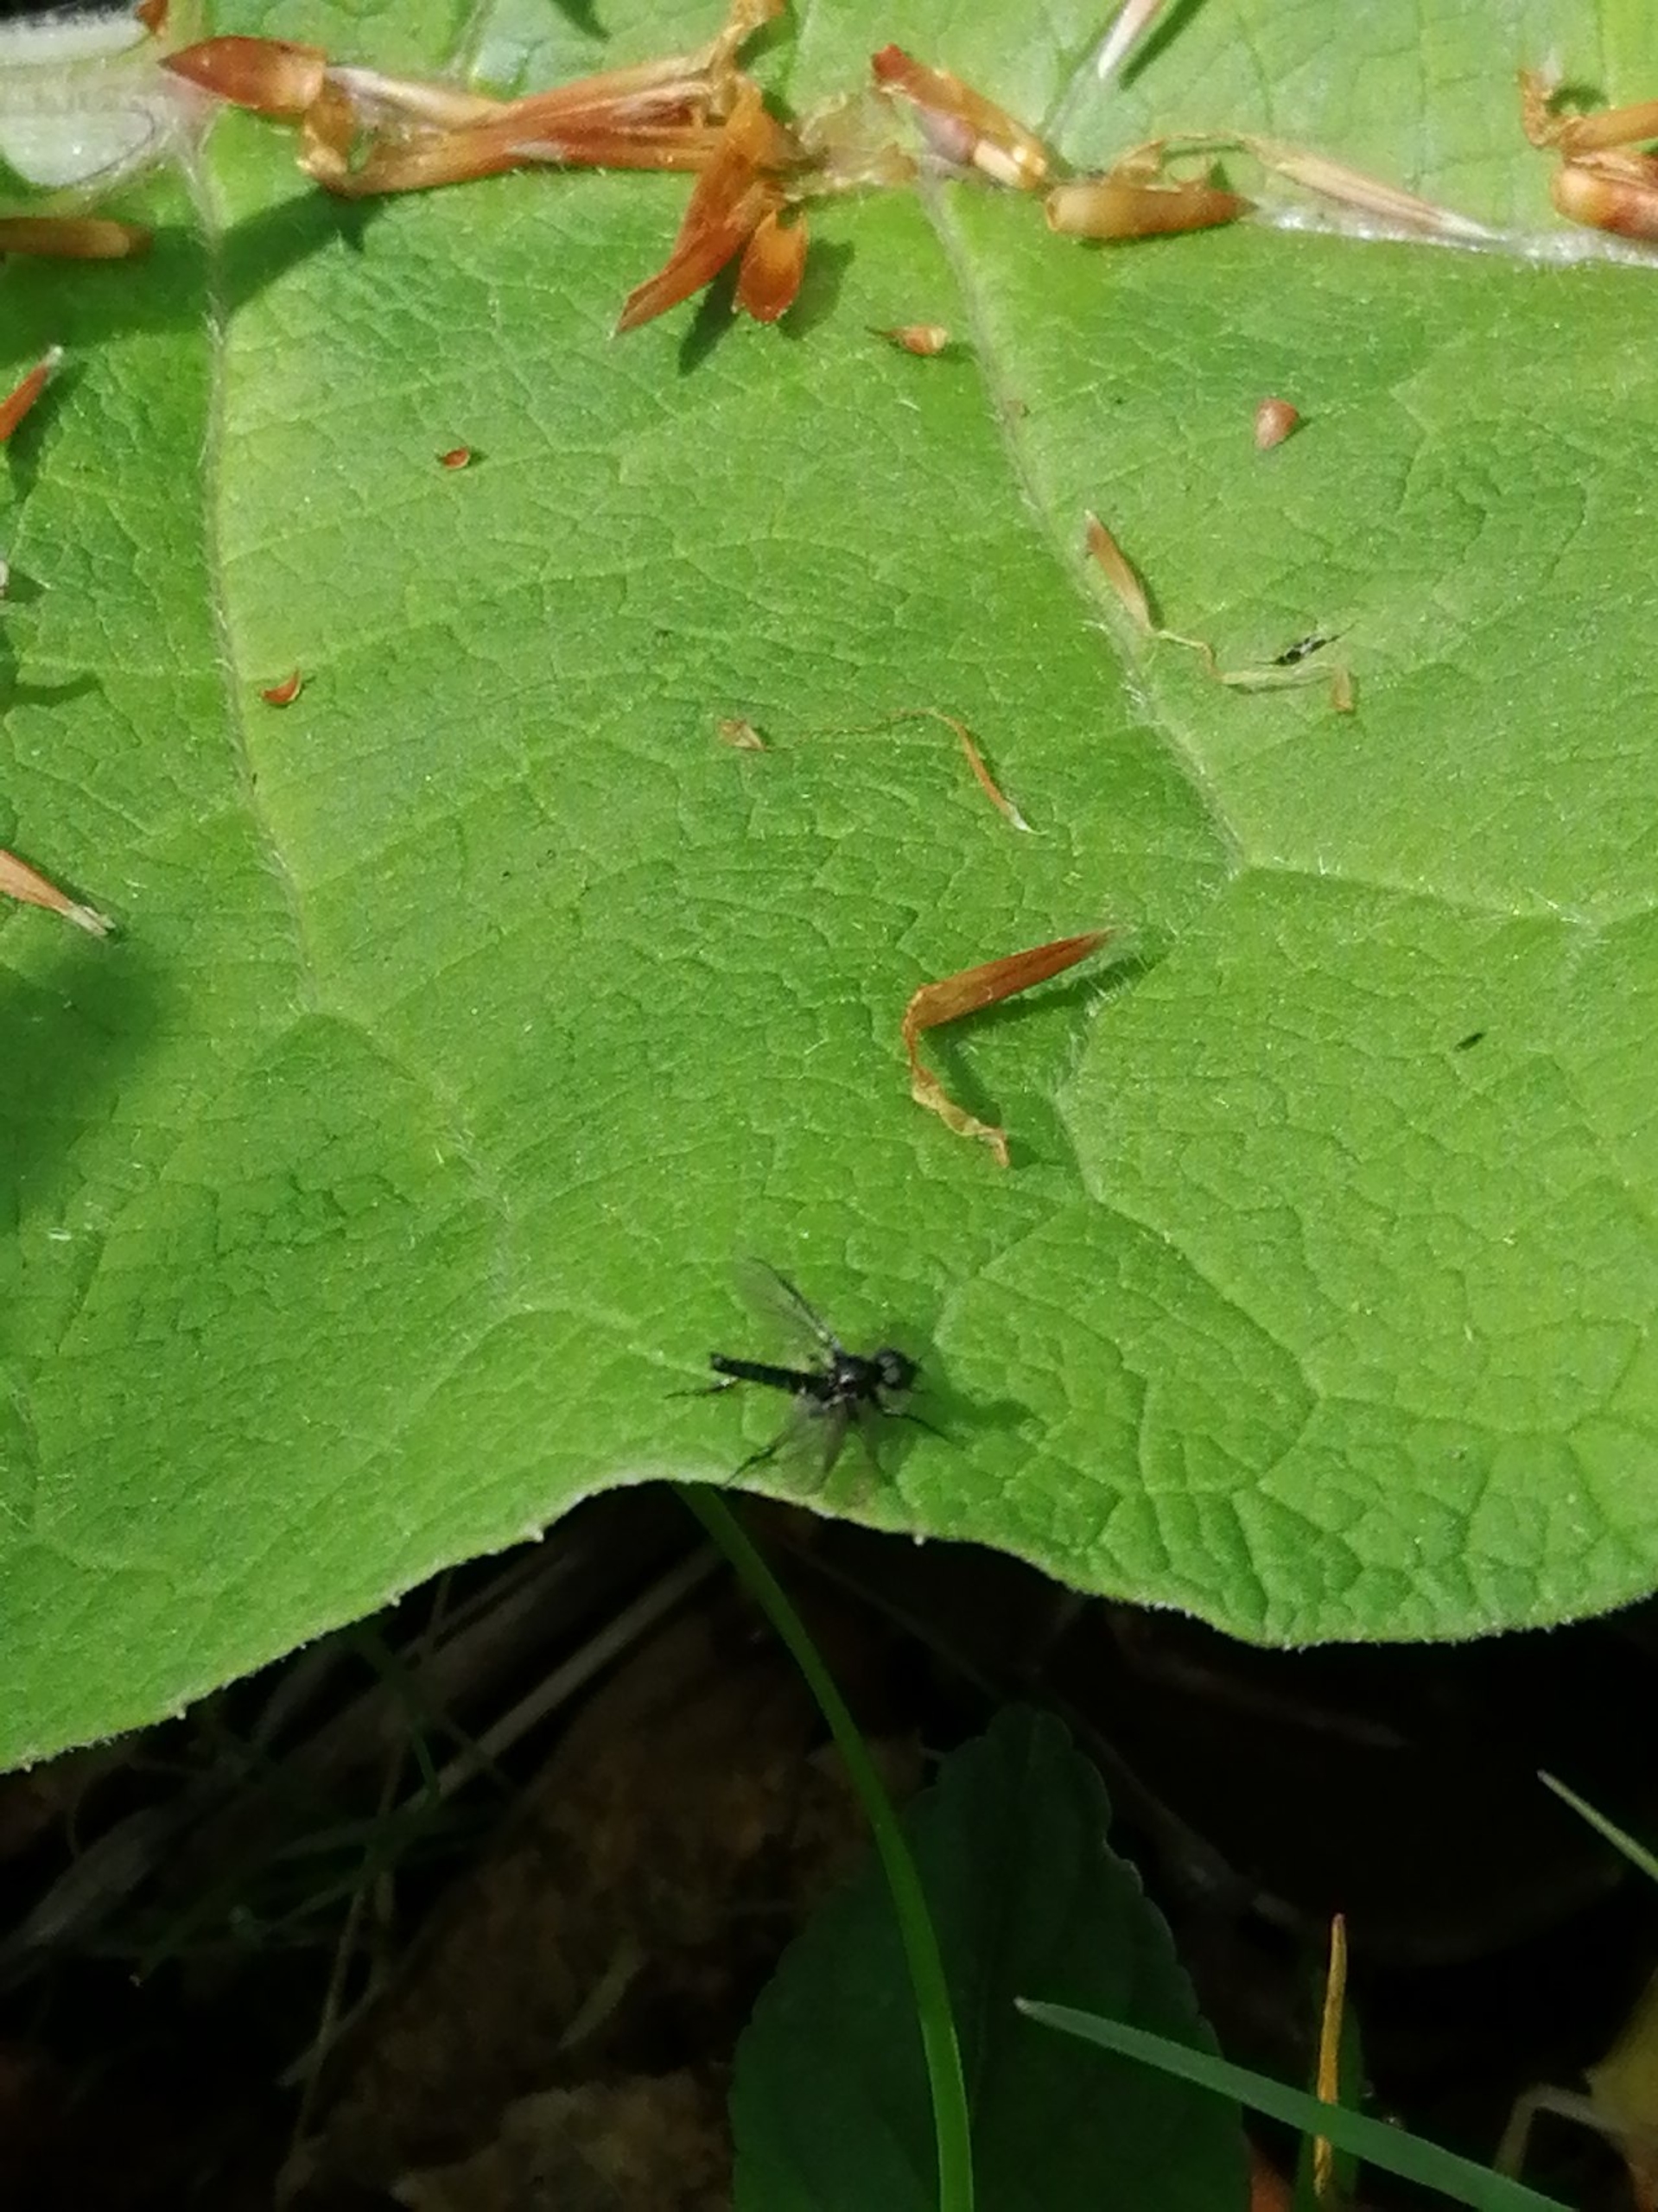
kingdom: Animalia
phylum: Arthropoda
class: Insecta
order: Diptera
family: Bibionidae
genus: Bibio
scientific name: Bibio
